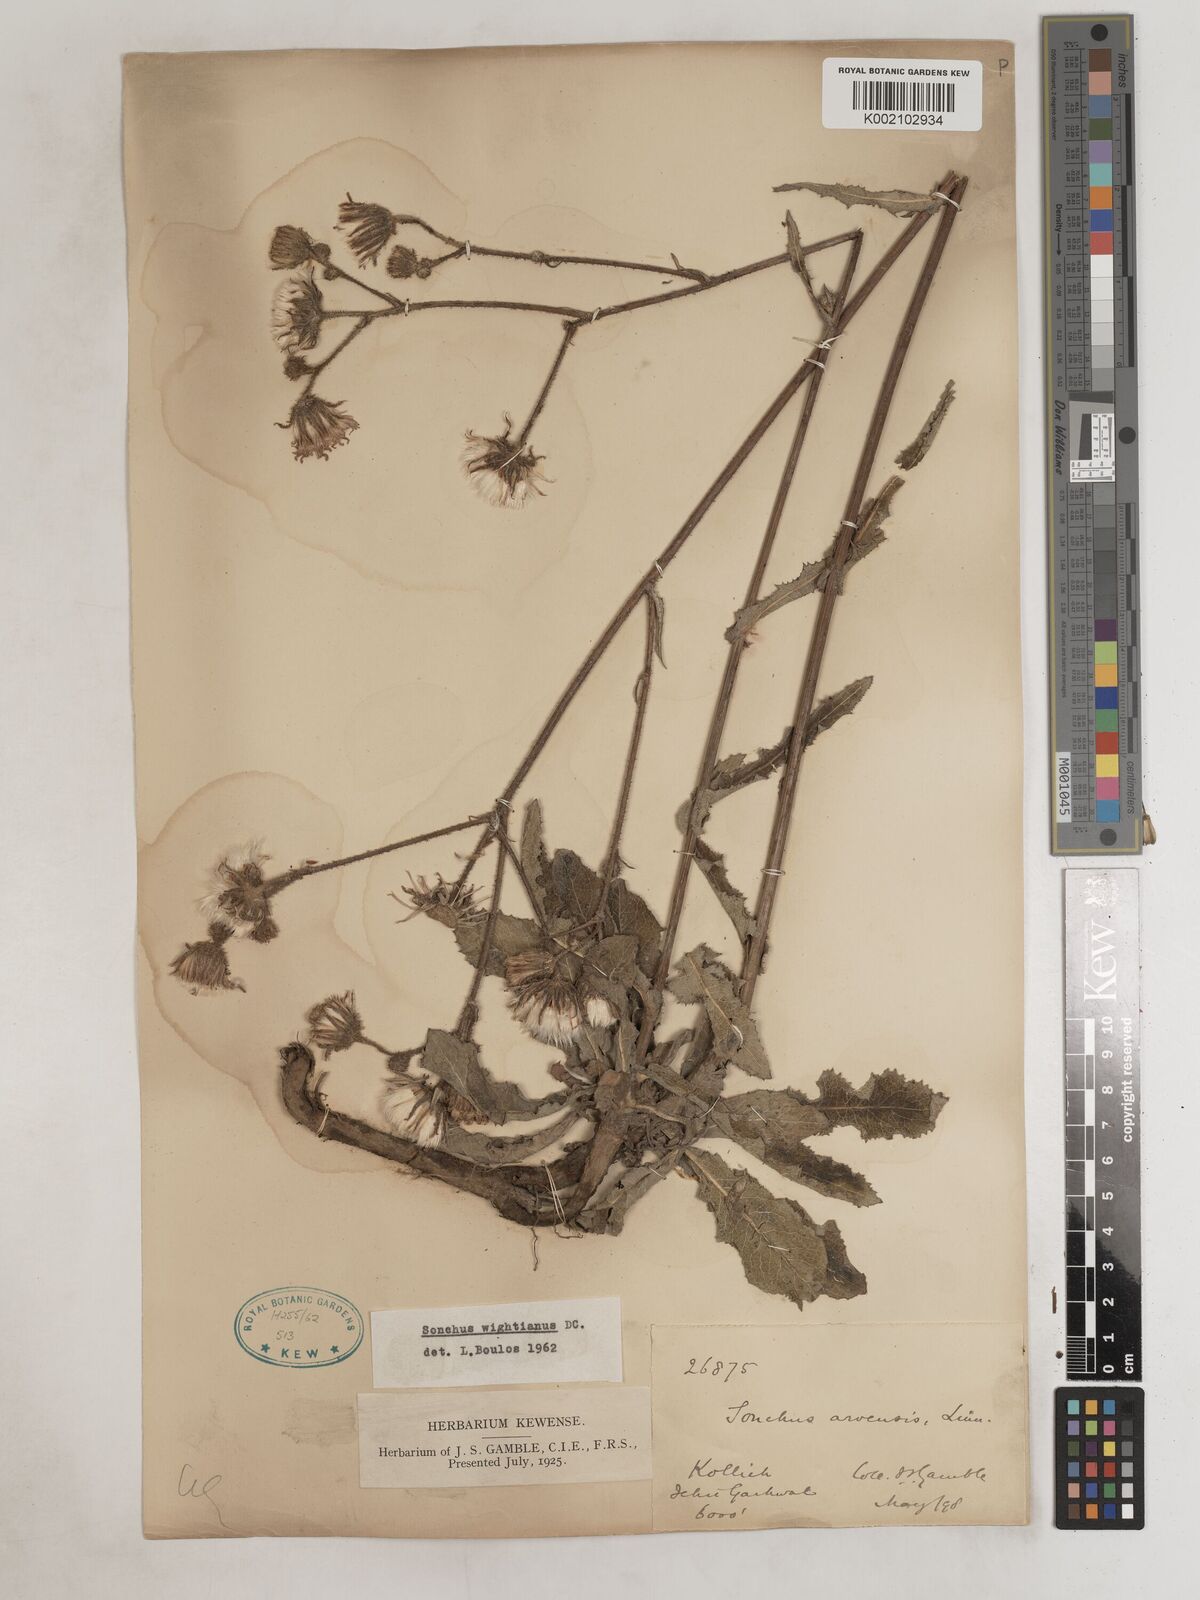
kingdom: Plantae
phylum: Tracheophyta
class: Magnoliopsida
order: Asterales
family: Asteraceae
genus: Sonchus
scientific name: Sonchus arvensis
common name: Perennial sow-thistle
